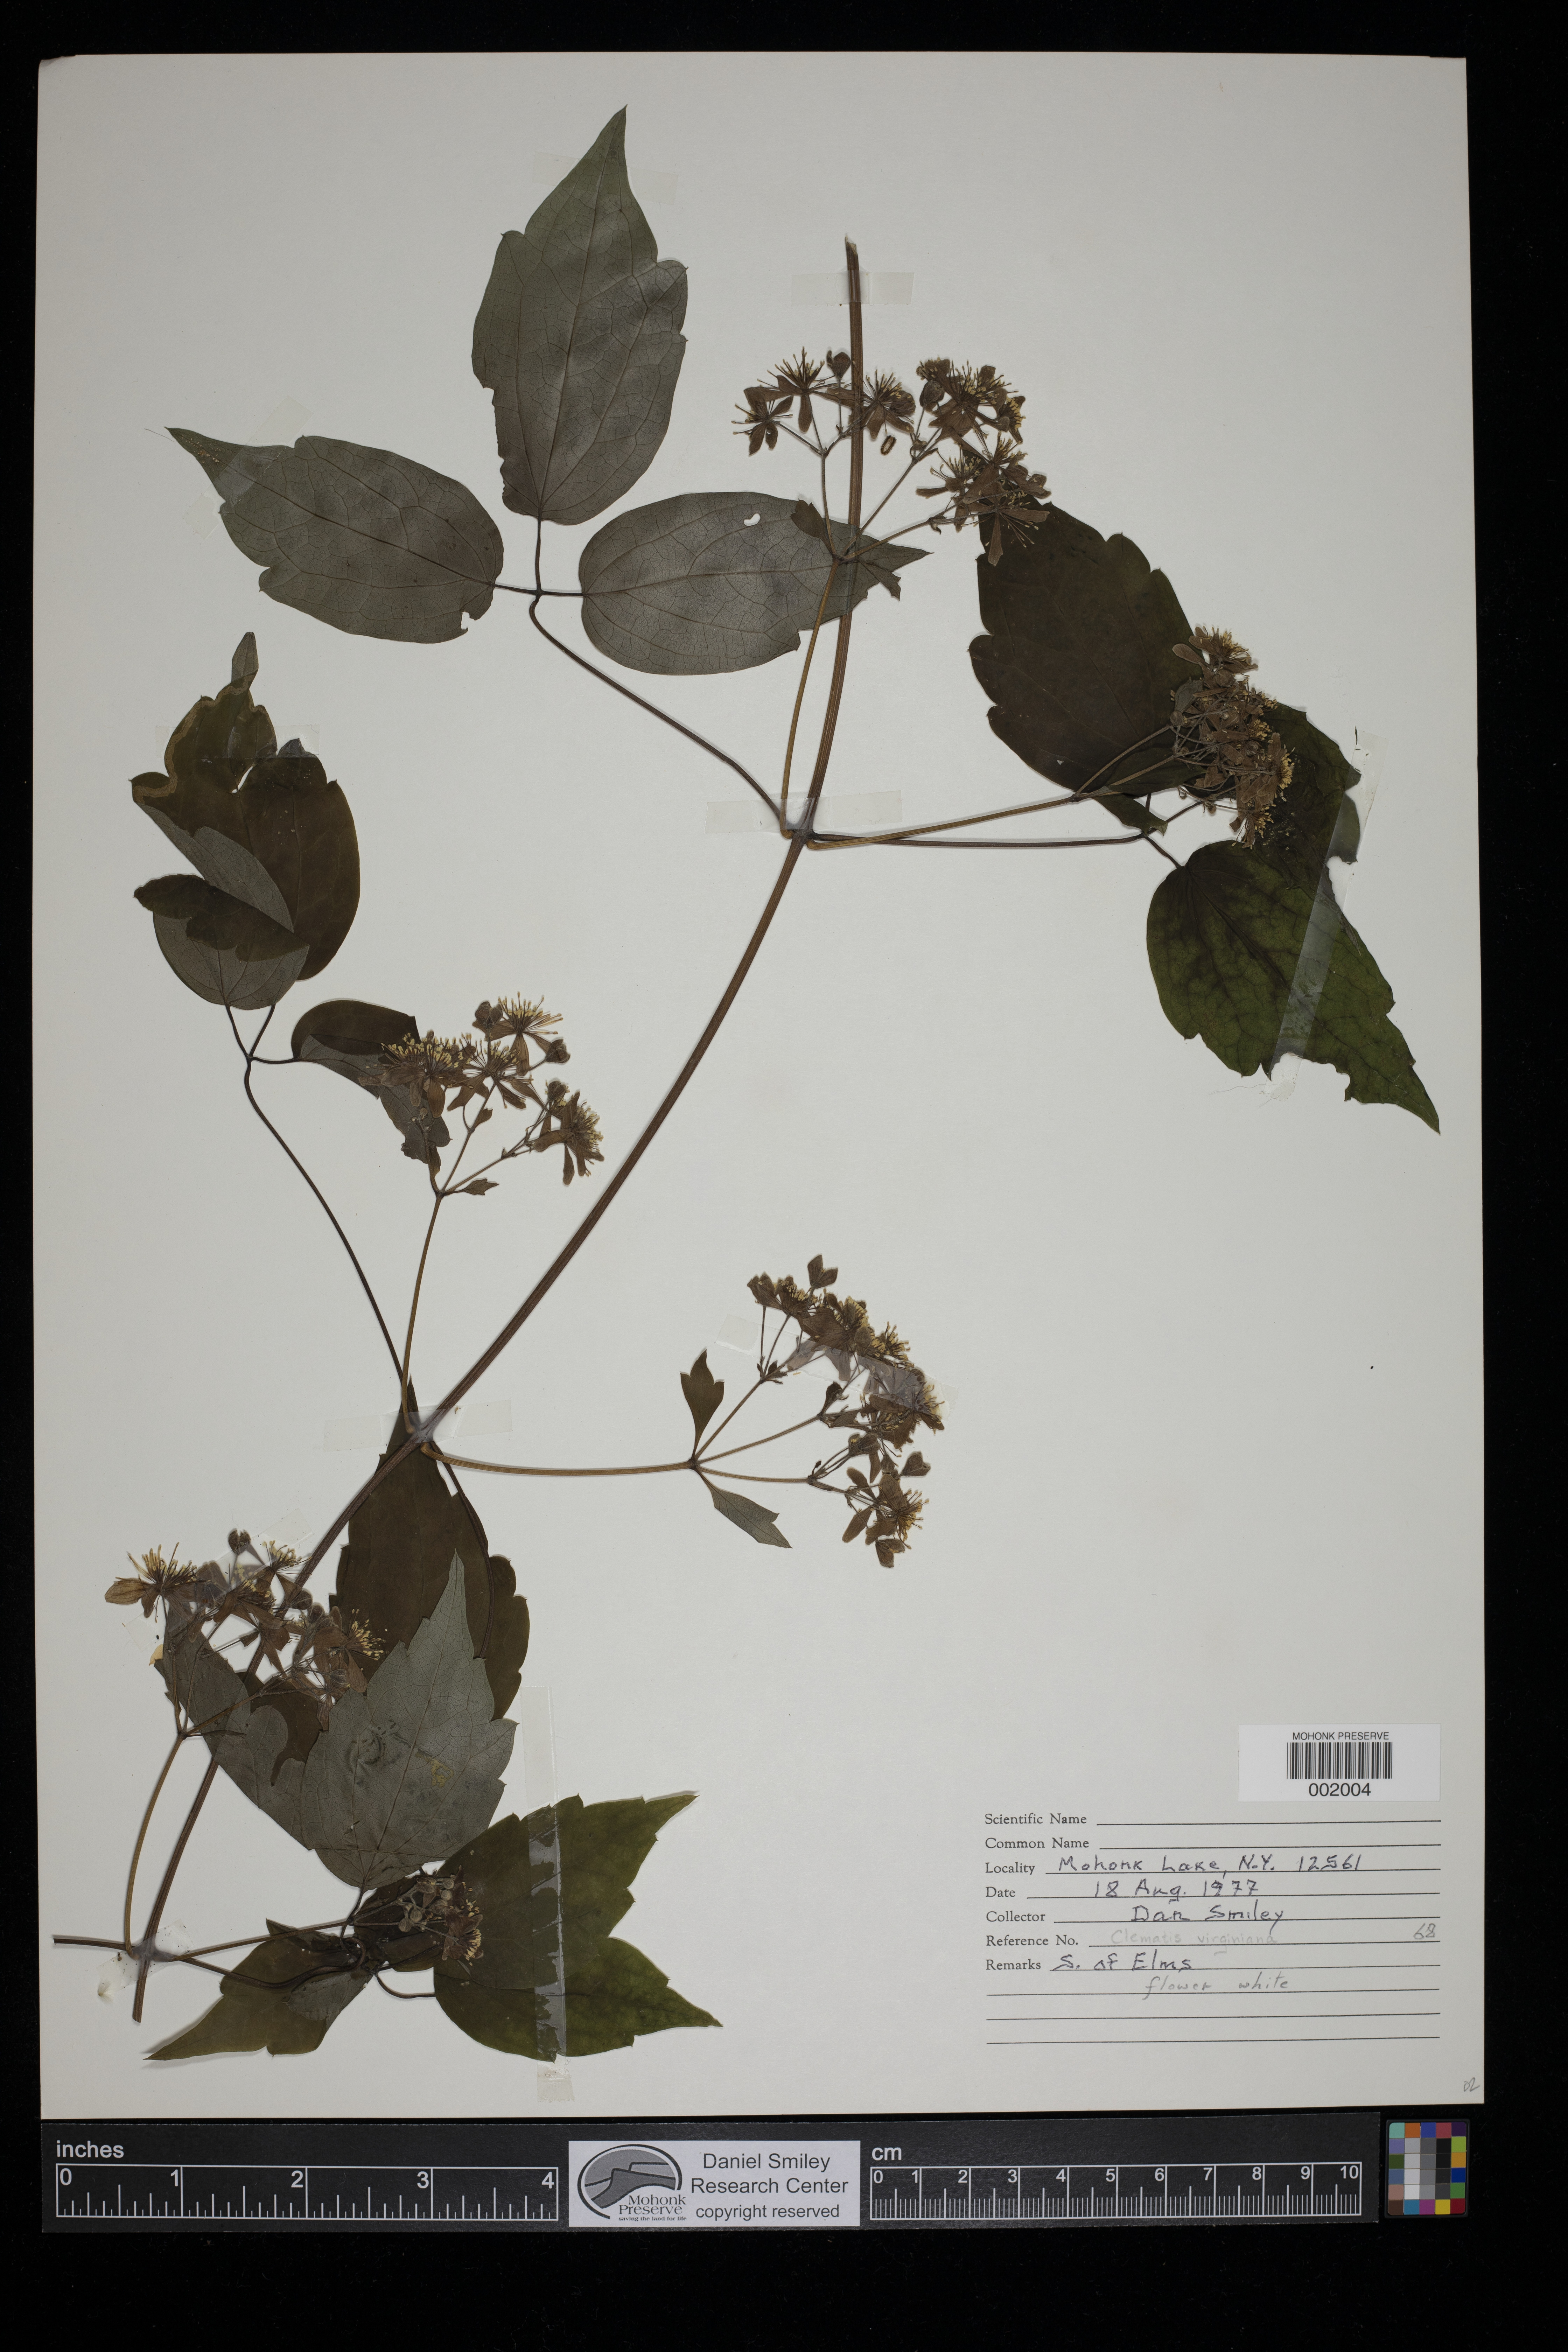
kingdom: Plantae
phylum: Tracheophyta
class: Magnoliopsida
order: Ranunculales
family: Ranunculaceae
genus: Clematis
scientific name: Clematis virginiana
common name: Virgin's-bower
